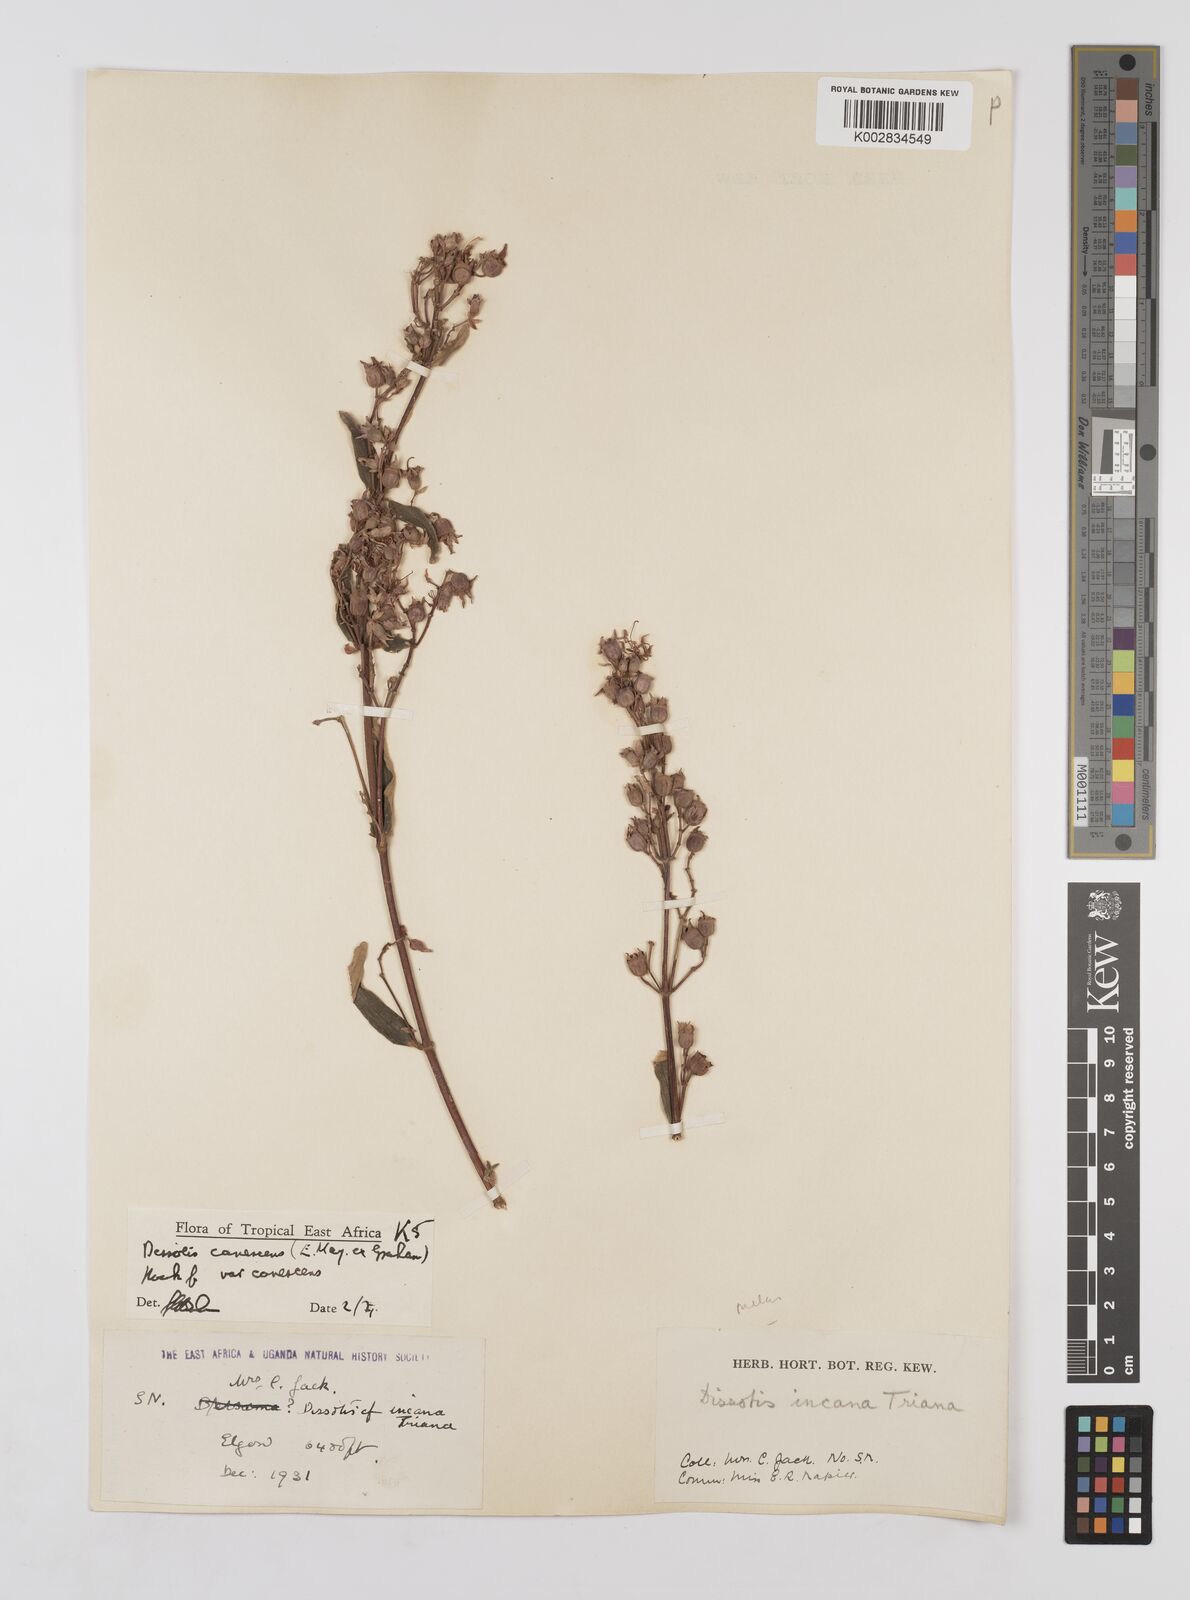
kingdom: Plantae
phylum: Tracheophyta
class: Magnoliopsida
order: Myrtales
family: Melastomataceae
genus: Argyrella
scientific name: Argyrella canescens
